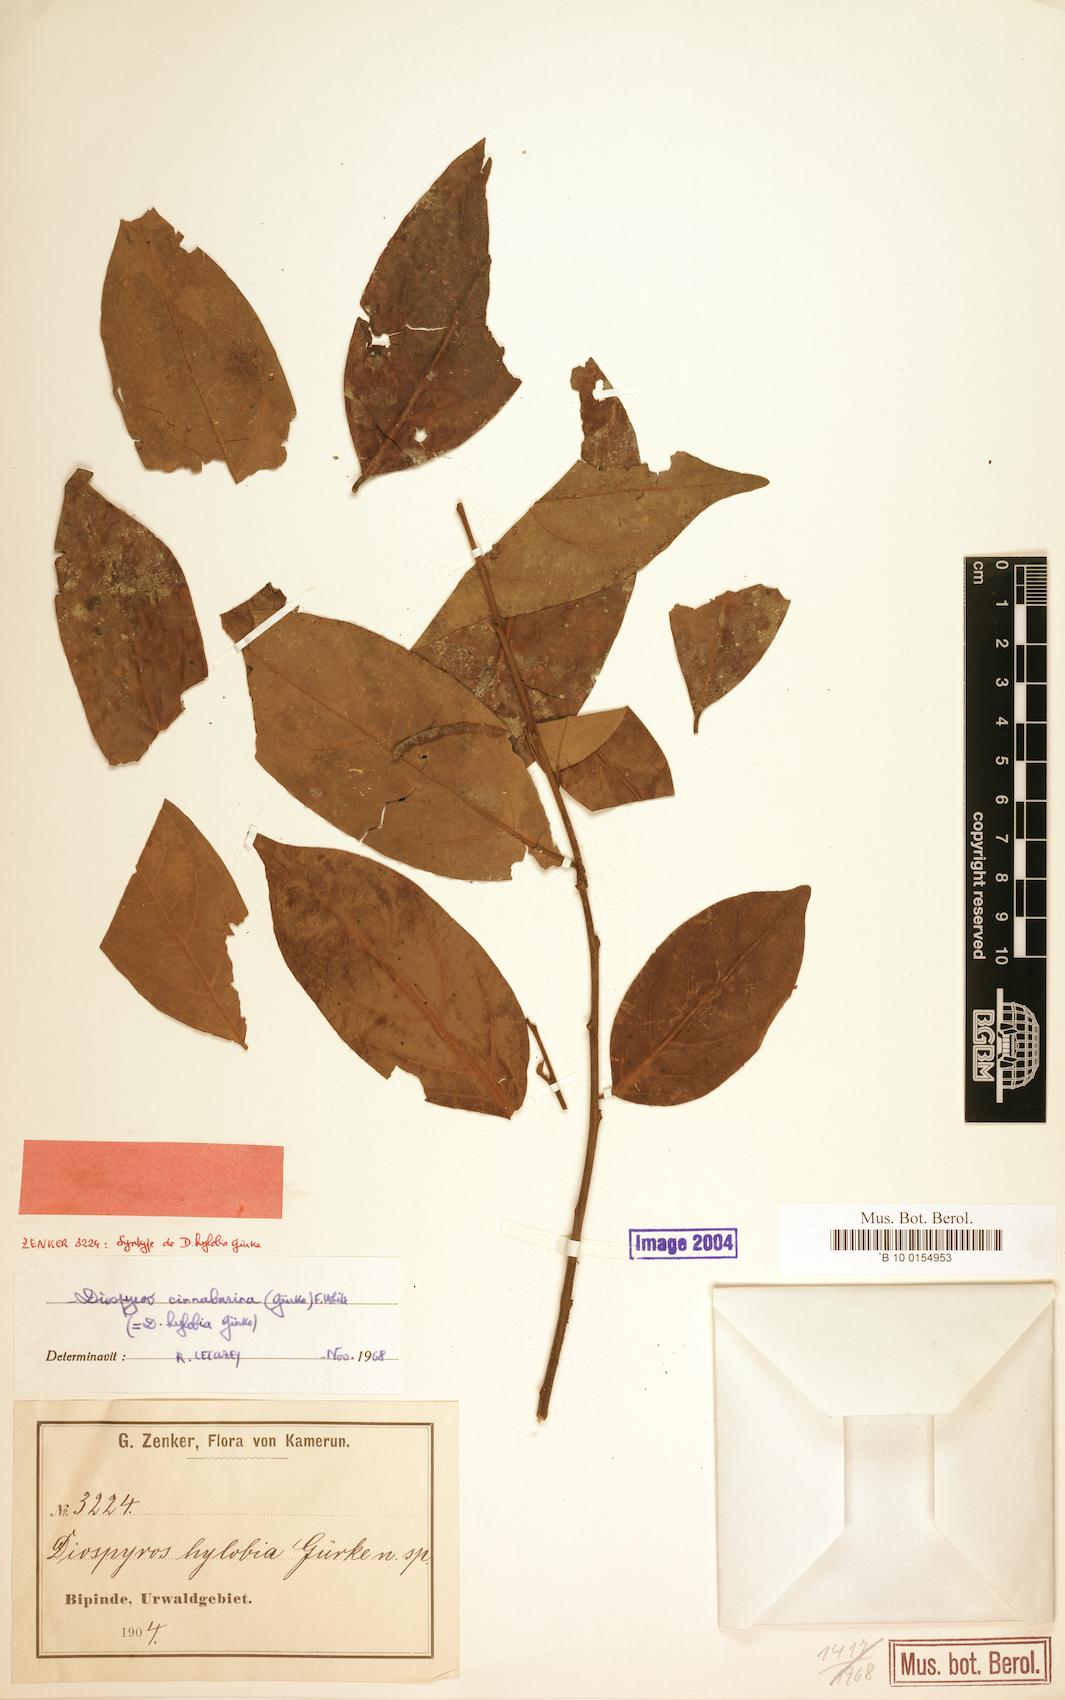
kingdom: Plantae
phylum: Tracheophyta
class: Magnoliopsida
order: Ericales
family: Ebenaceae
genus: Diospyros
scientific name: Diospyros cinnabarina
